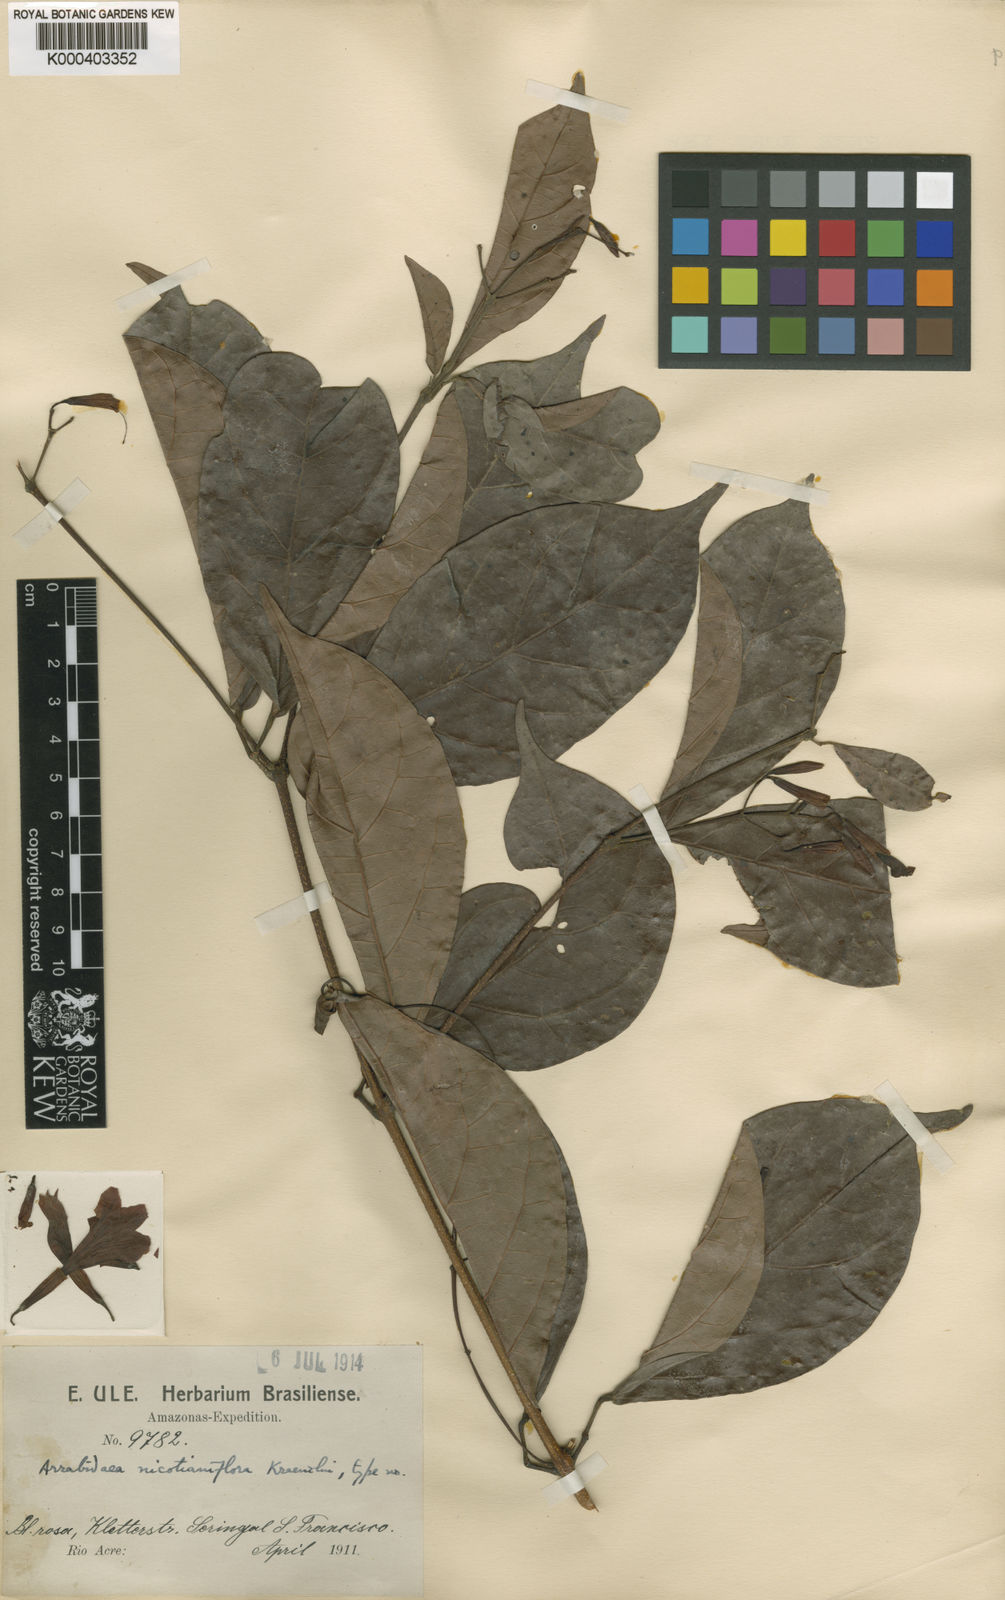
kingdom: Plantae
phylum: Tracheophyta
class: Magnoliopsida
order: Lamiales
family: Bignoniaceae
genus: Fridericia
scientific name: Fridericia nicotianiflora
